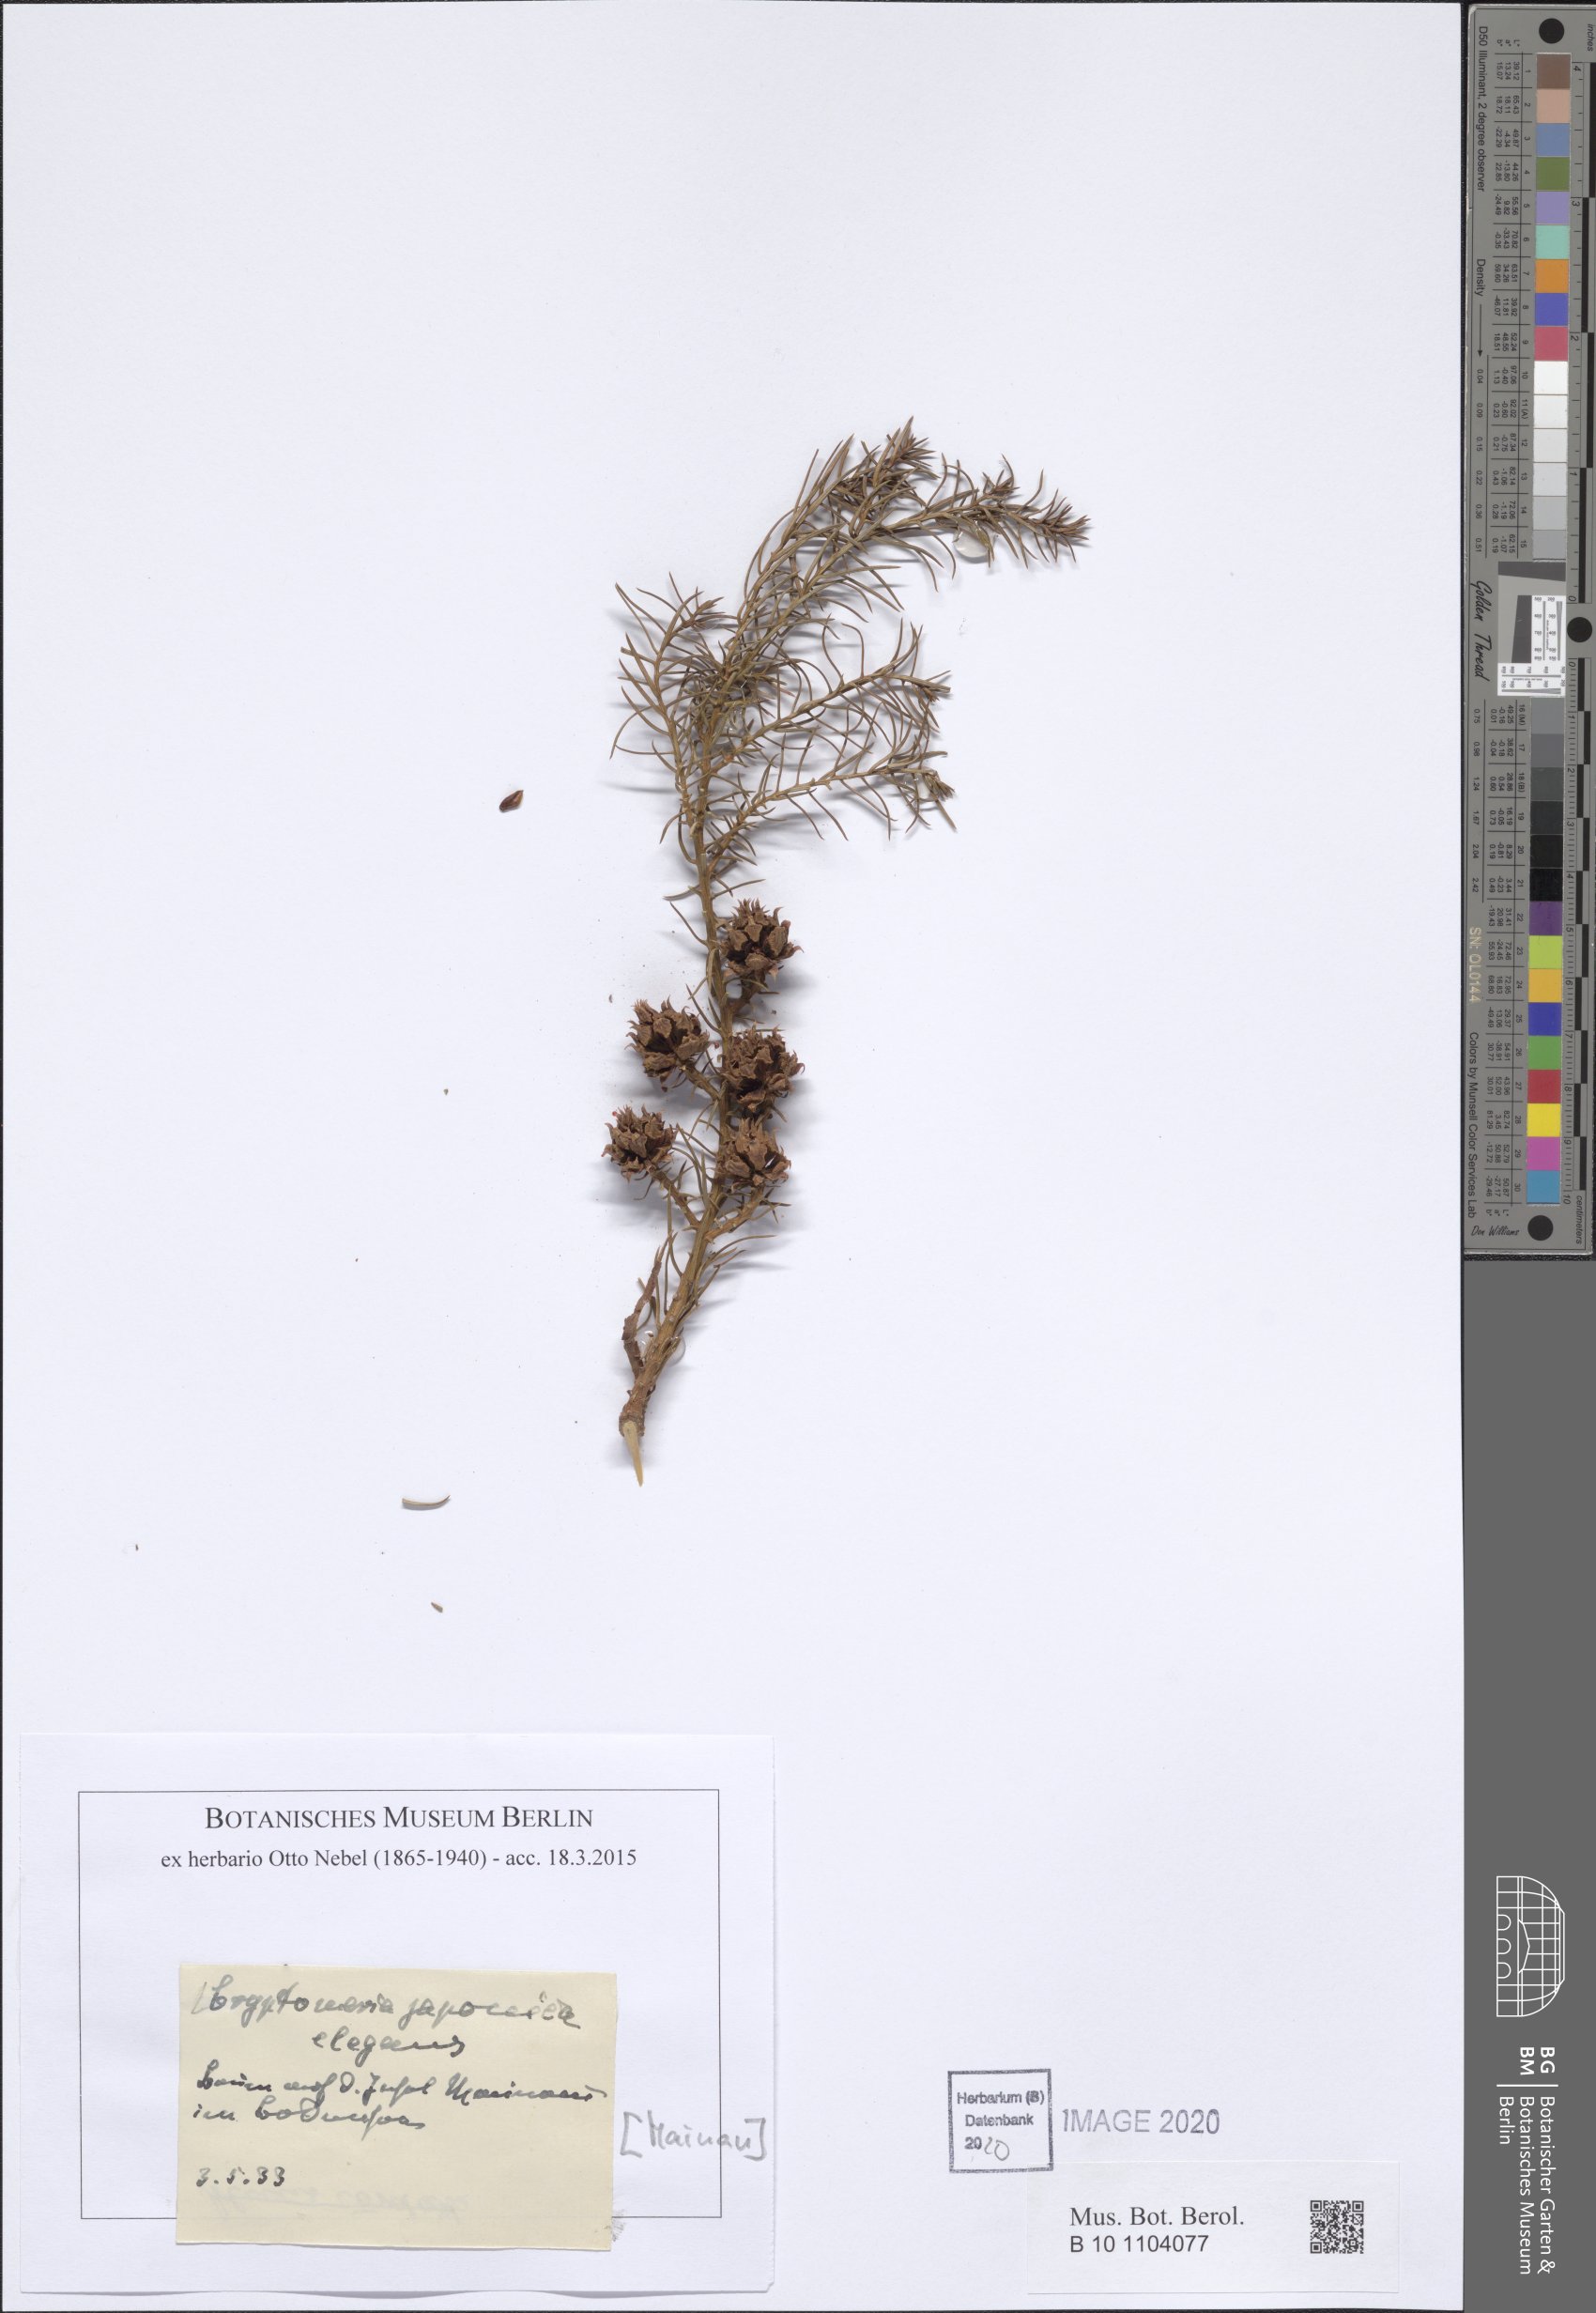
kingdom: Plantae
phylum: Tracheophyta
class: Pinopsida
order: Pinales
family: Cupressaceae
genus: Cryptomeria
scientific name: Cryptomeria japonica
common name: Japanese cedar
